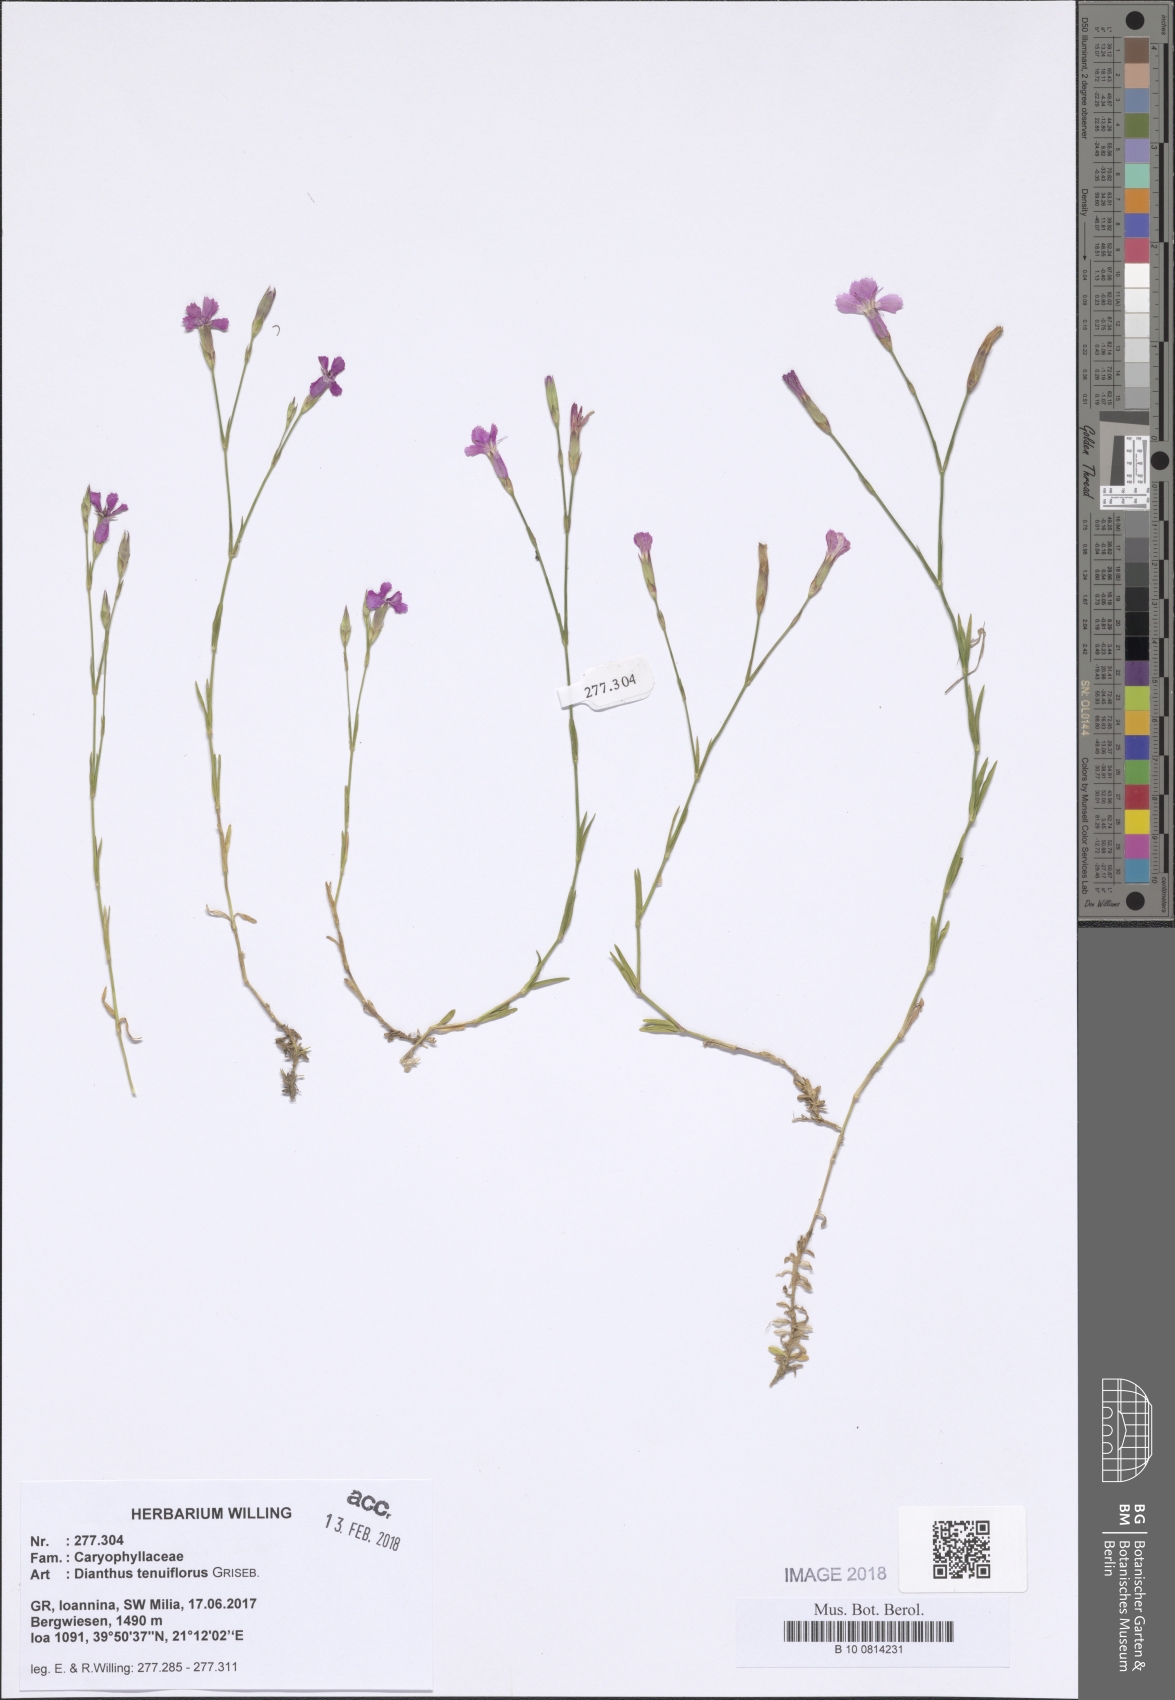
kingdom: Plantae
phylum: Tracheophyta
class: Magnoliopsida
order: Caryophyllales
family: Caryophyllaceae
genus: Dianthus
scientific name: Dianthus deltoides
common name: Maiden pink
